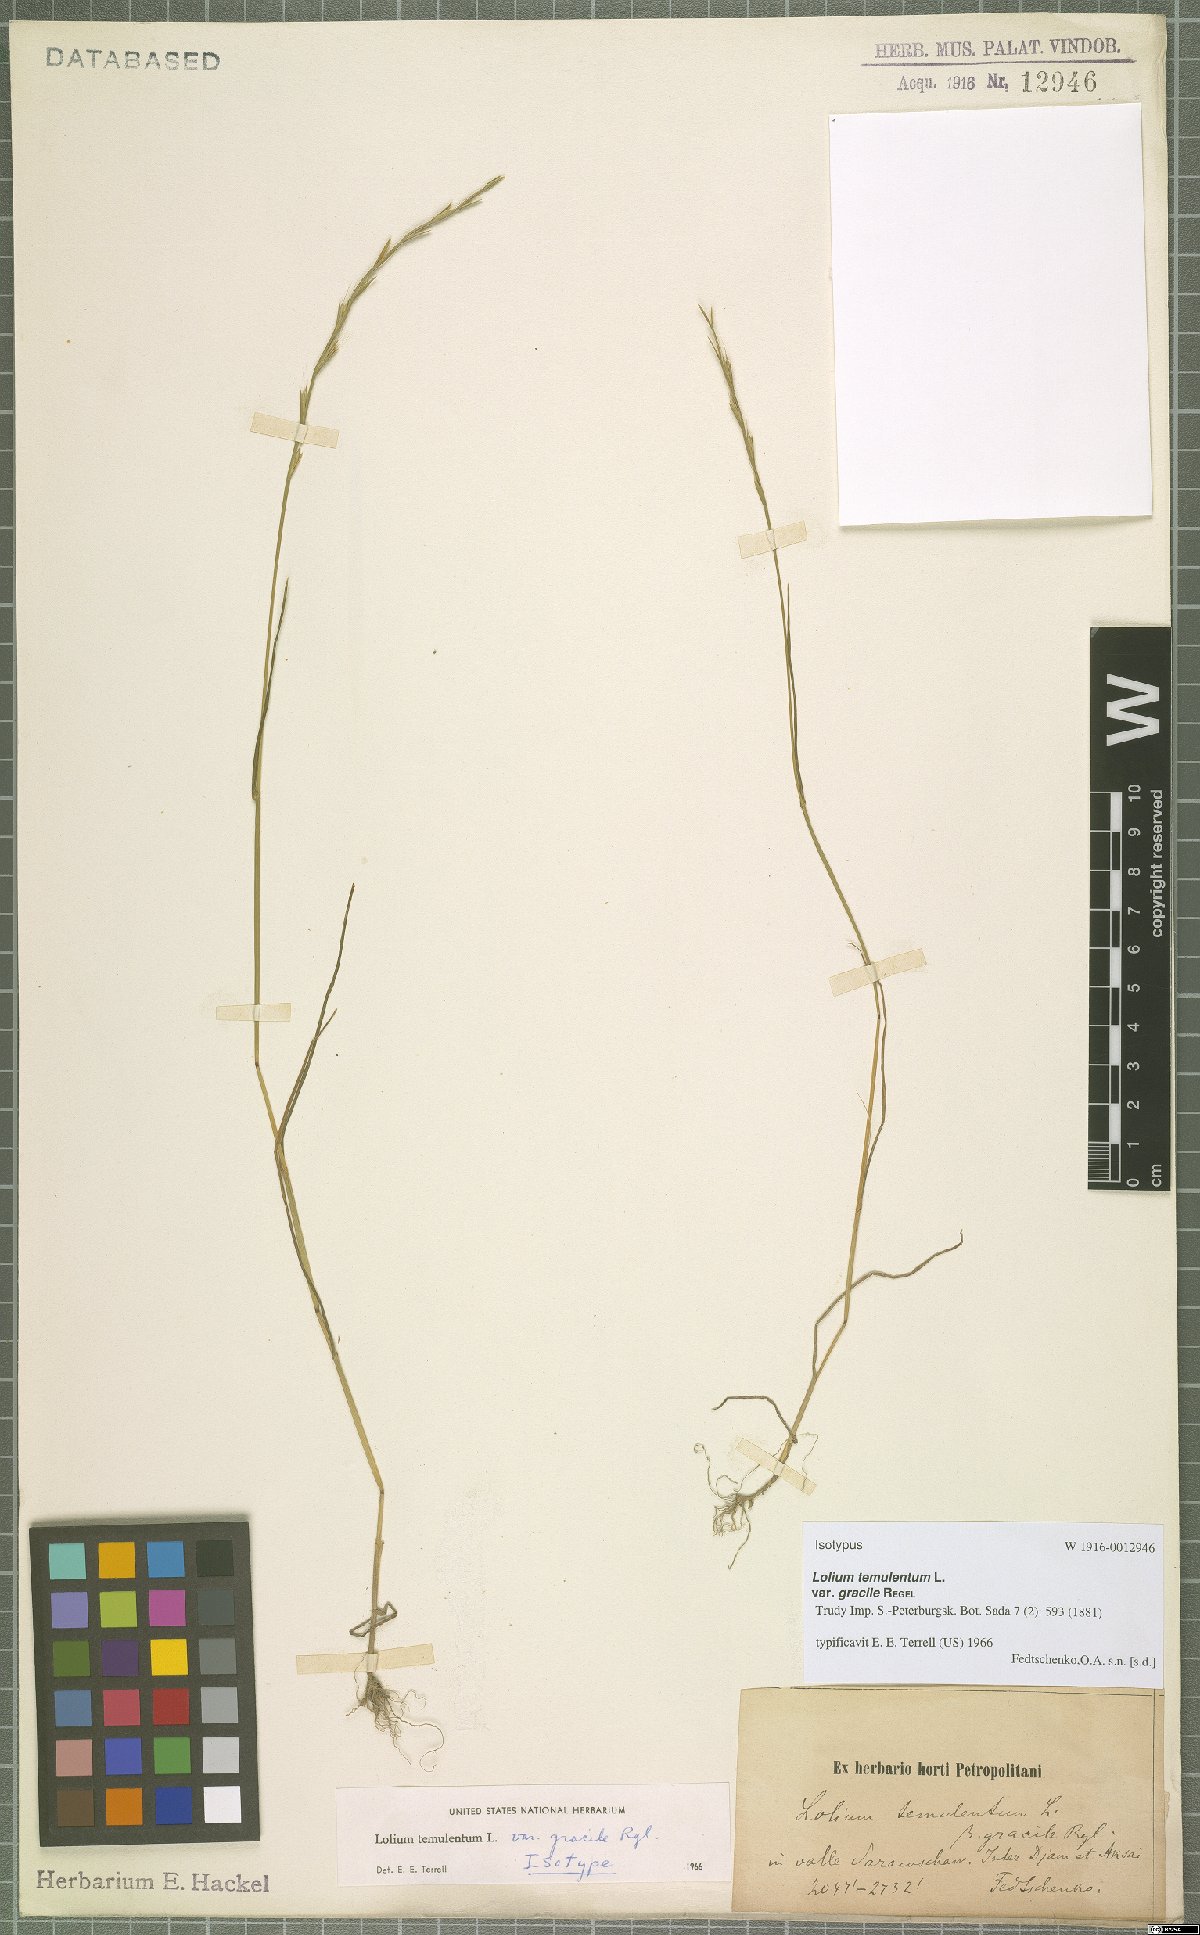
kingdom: Plantae
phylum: Tracheophyta
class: Liliopsida
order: Poales
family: Poaceae
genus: Lolium
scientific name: Lolium persicum
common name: Persian ryegrass
